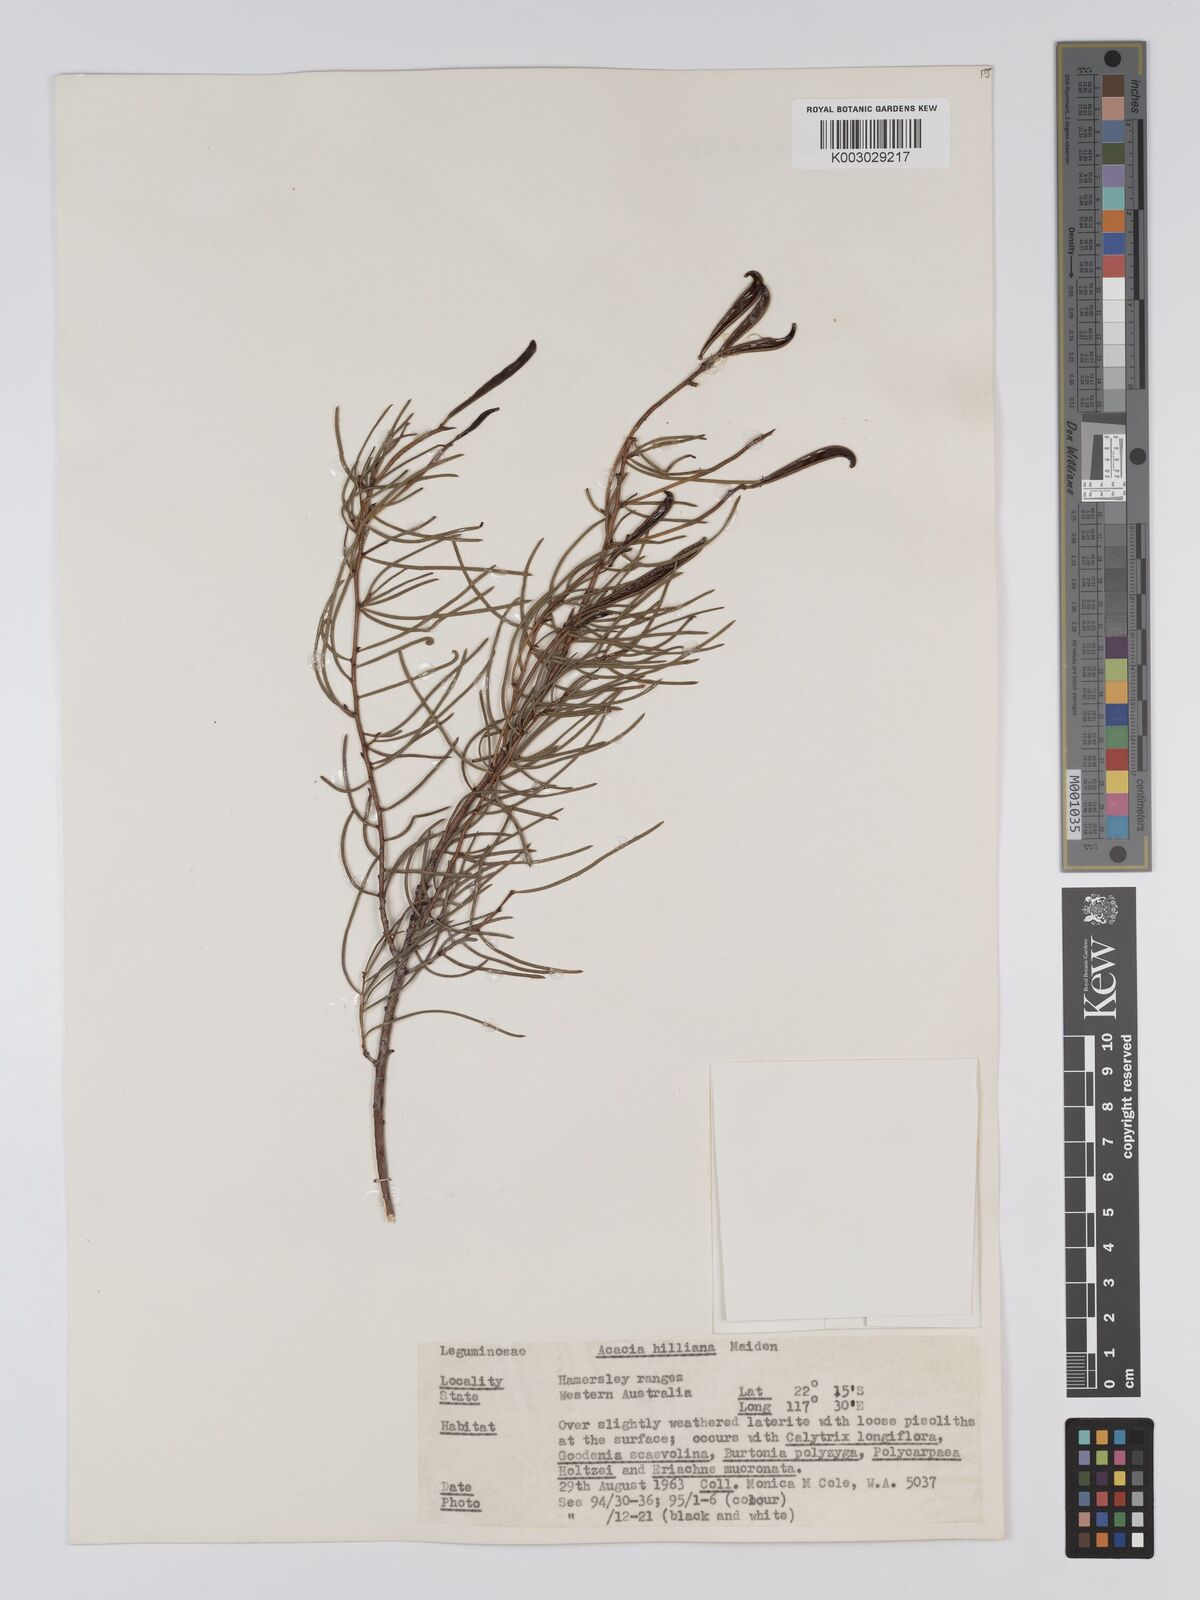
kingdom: Plantae
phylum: Tracheophyta
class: Magnoliopsida
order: Fabales
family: Fabaceae
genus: Acacia
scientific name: Acacia hilliana
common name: Hill's tabletop wattle
